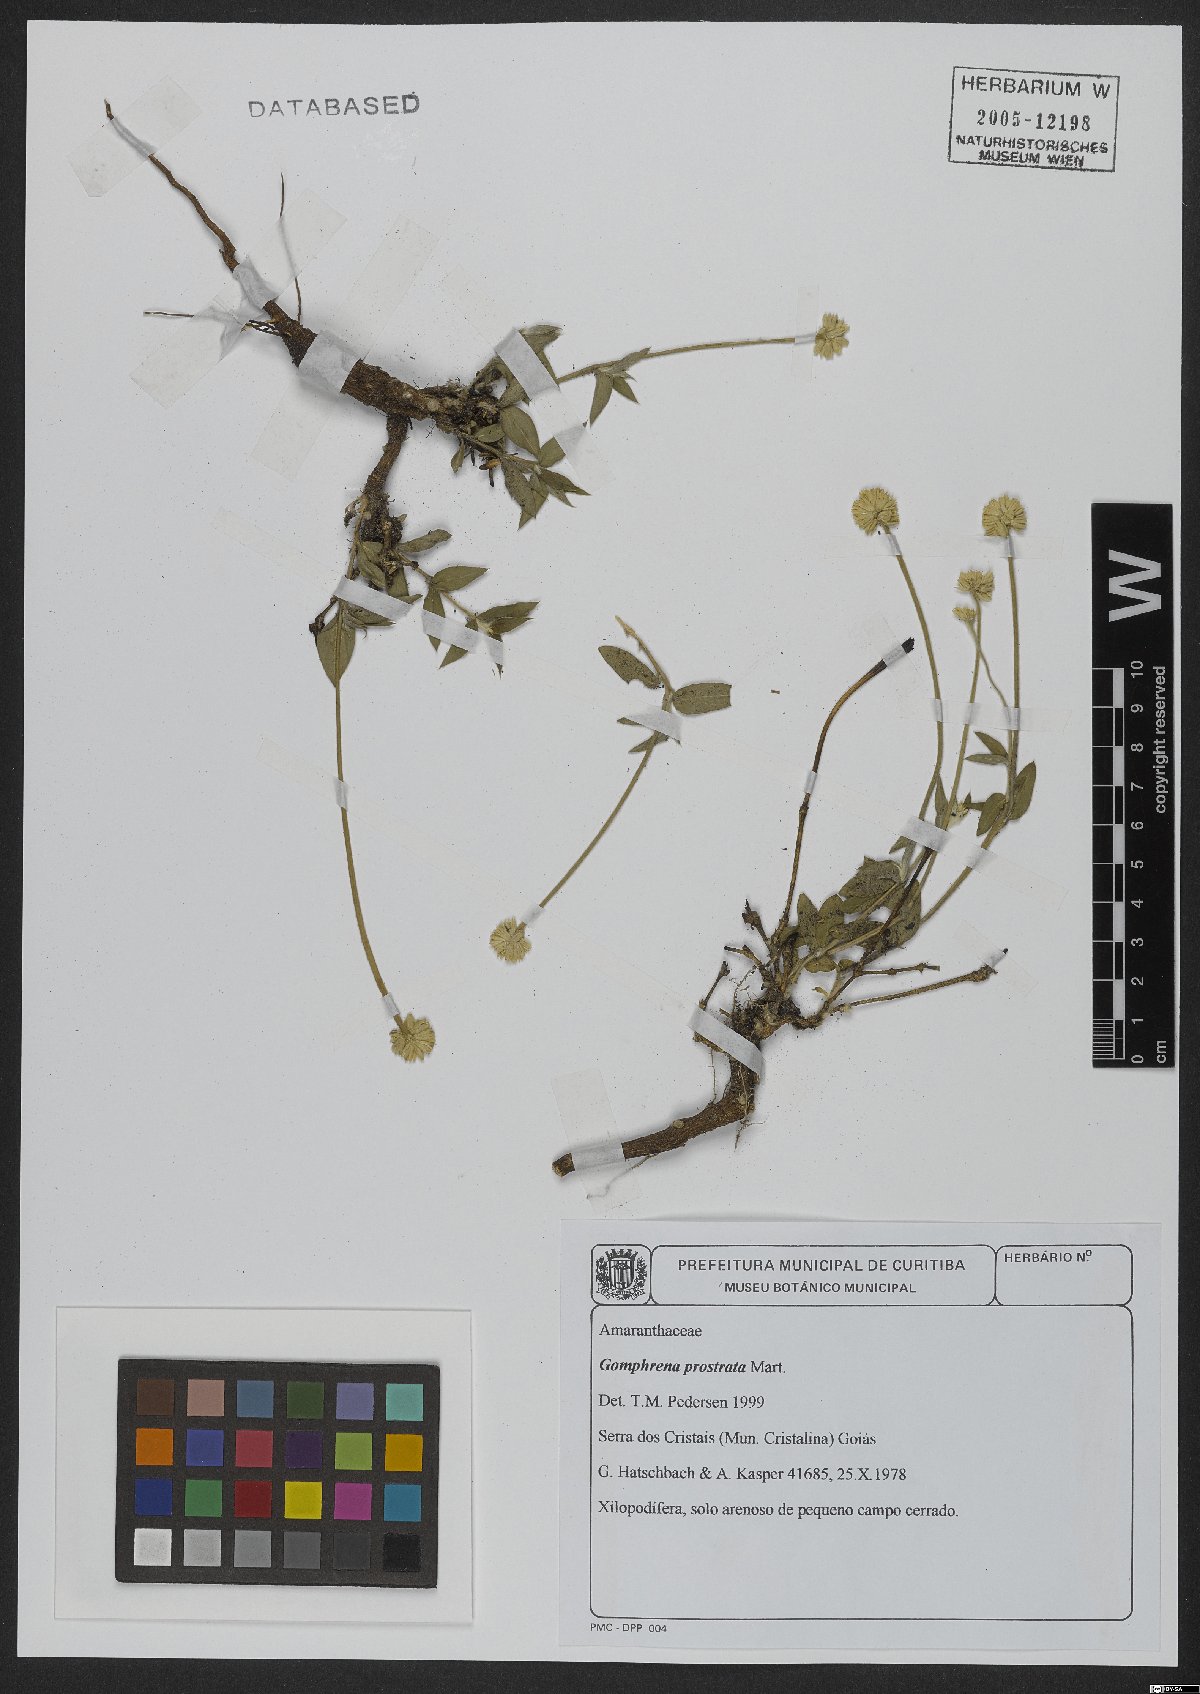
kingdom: Plantae
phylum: Tracheophyta
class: Magnoliopsida
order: Caryophyllales
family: Amaranthaceae
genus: Gomphrena
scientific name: Gomphrena prostrata
